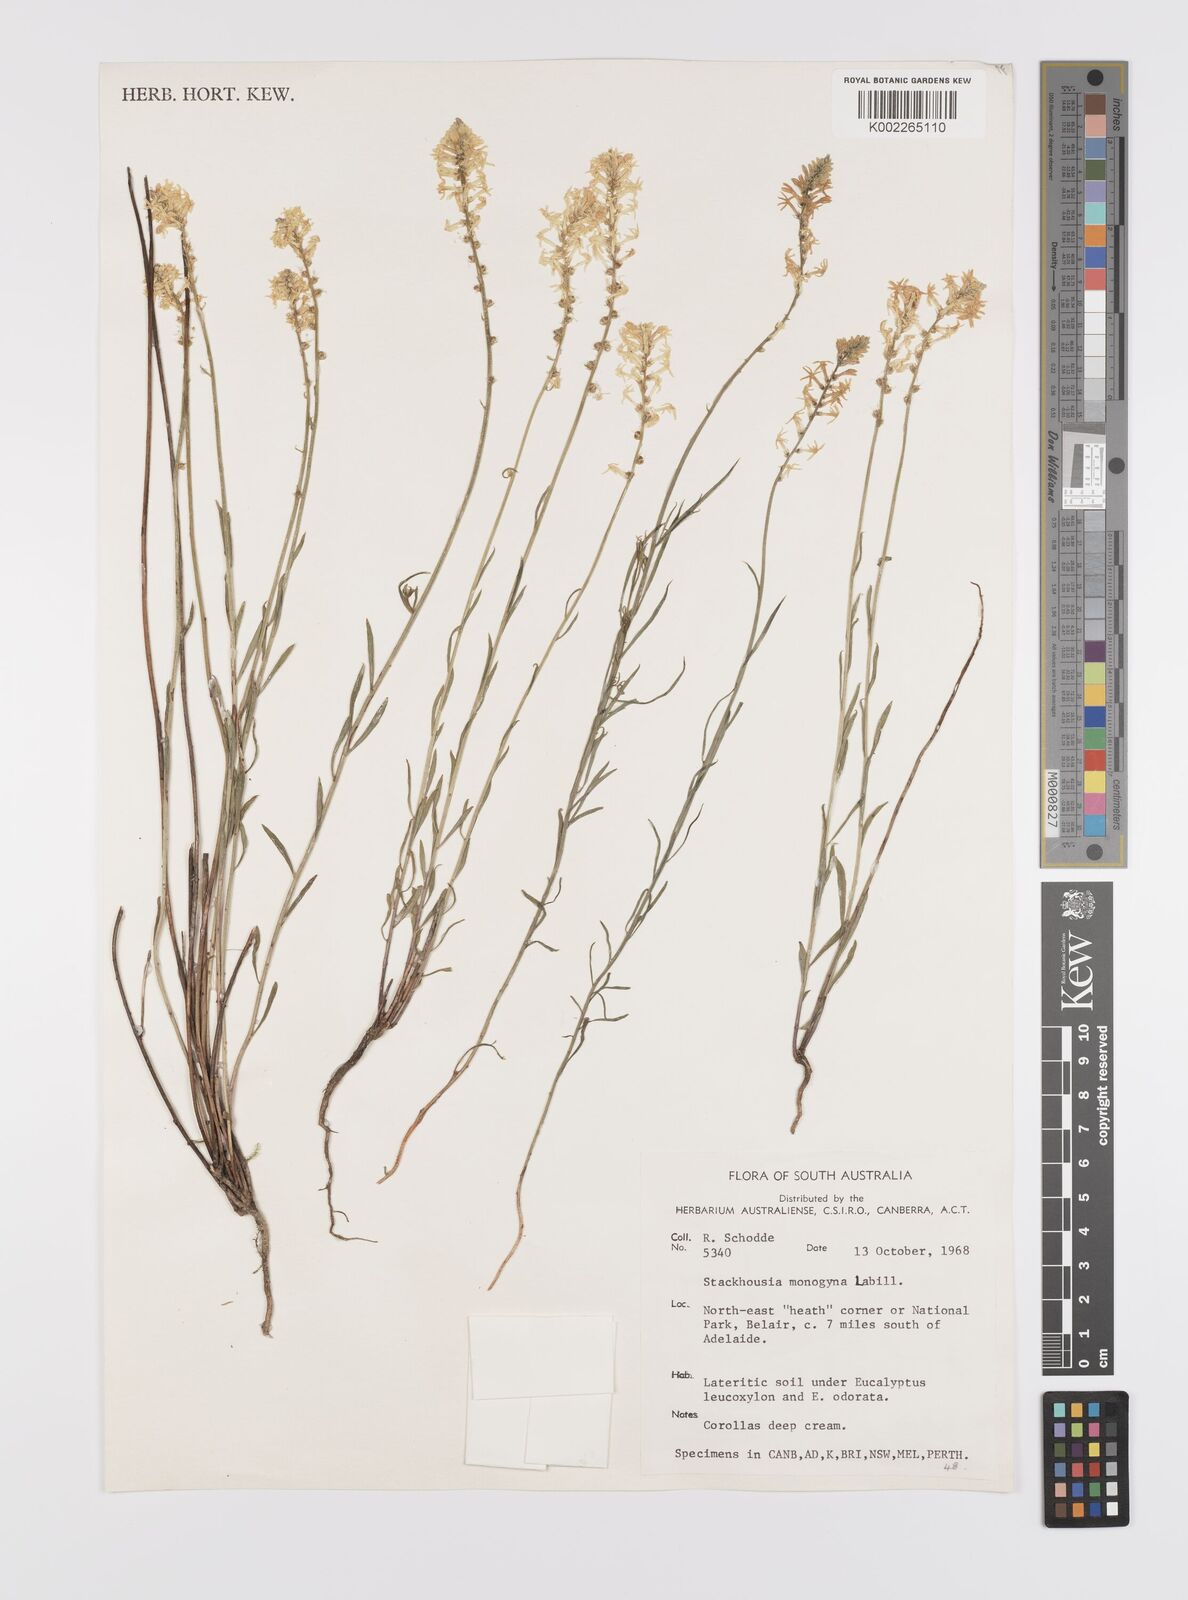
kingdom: Plantae
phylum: Tracheophyta
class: Magnoliopsida
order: Celastrales
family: Celastraceae
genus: Stackhousia
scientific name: Stackhousia monogyna
